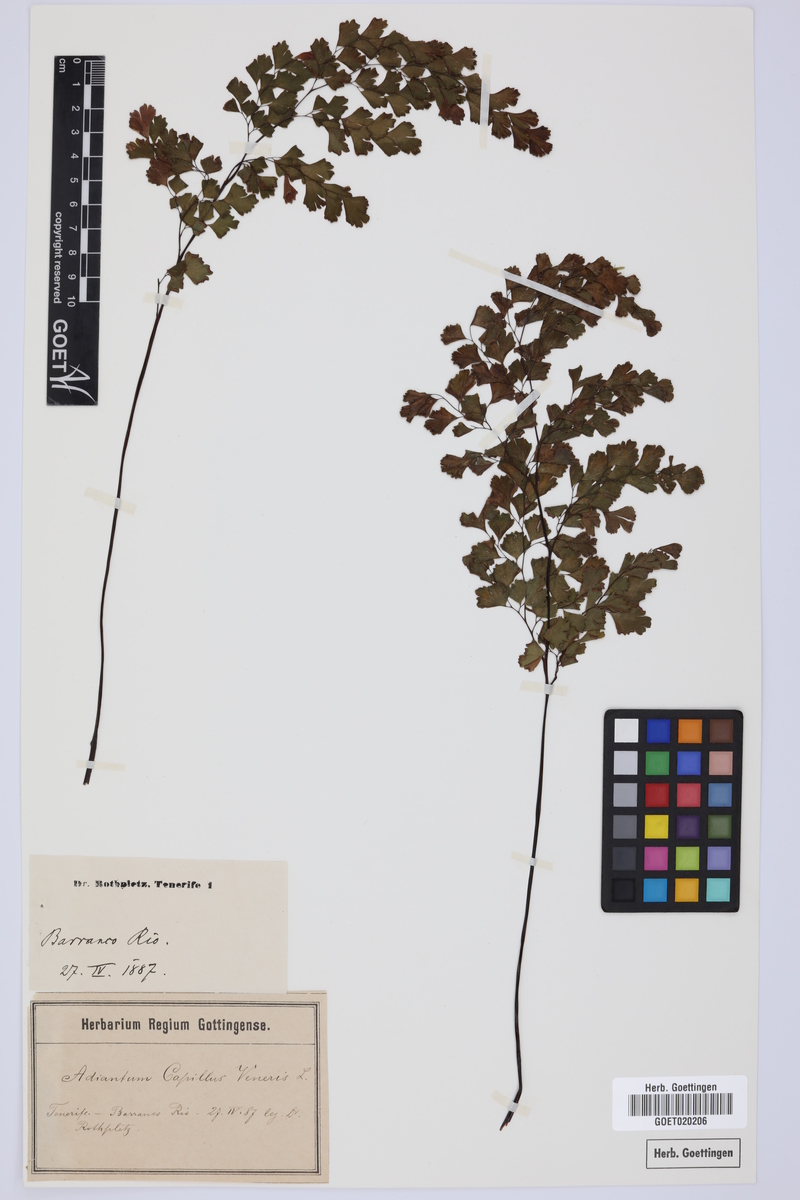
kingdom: Plantae
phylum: Tracheophyta
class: Polypodiopsida
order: Polypodiales
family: Pteridaceae
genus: Adiantum
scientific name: Adiantum capillus-veneris
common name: Maidenhair fern
